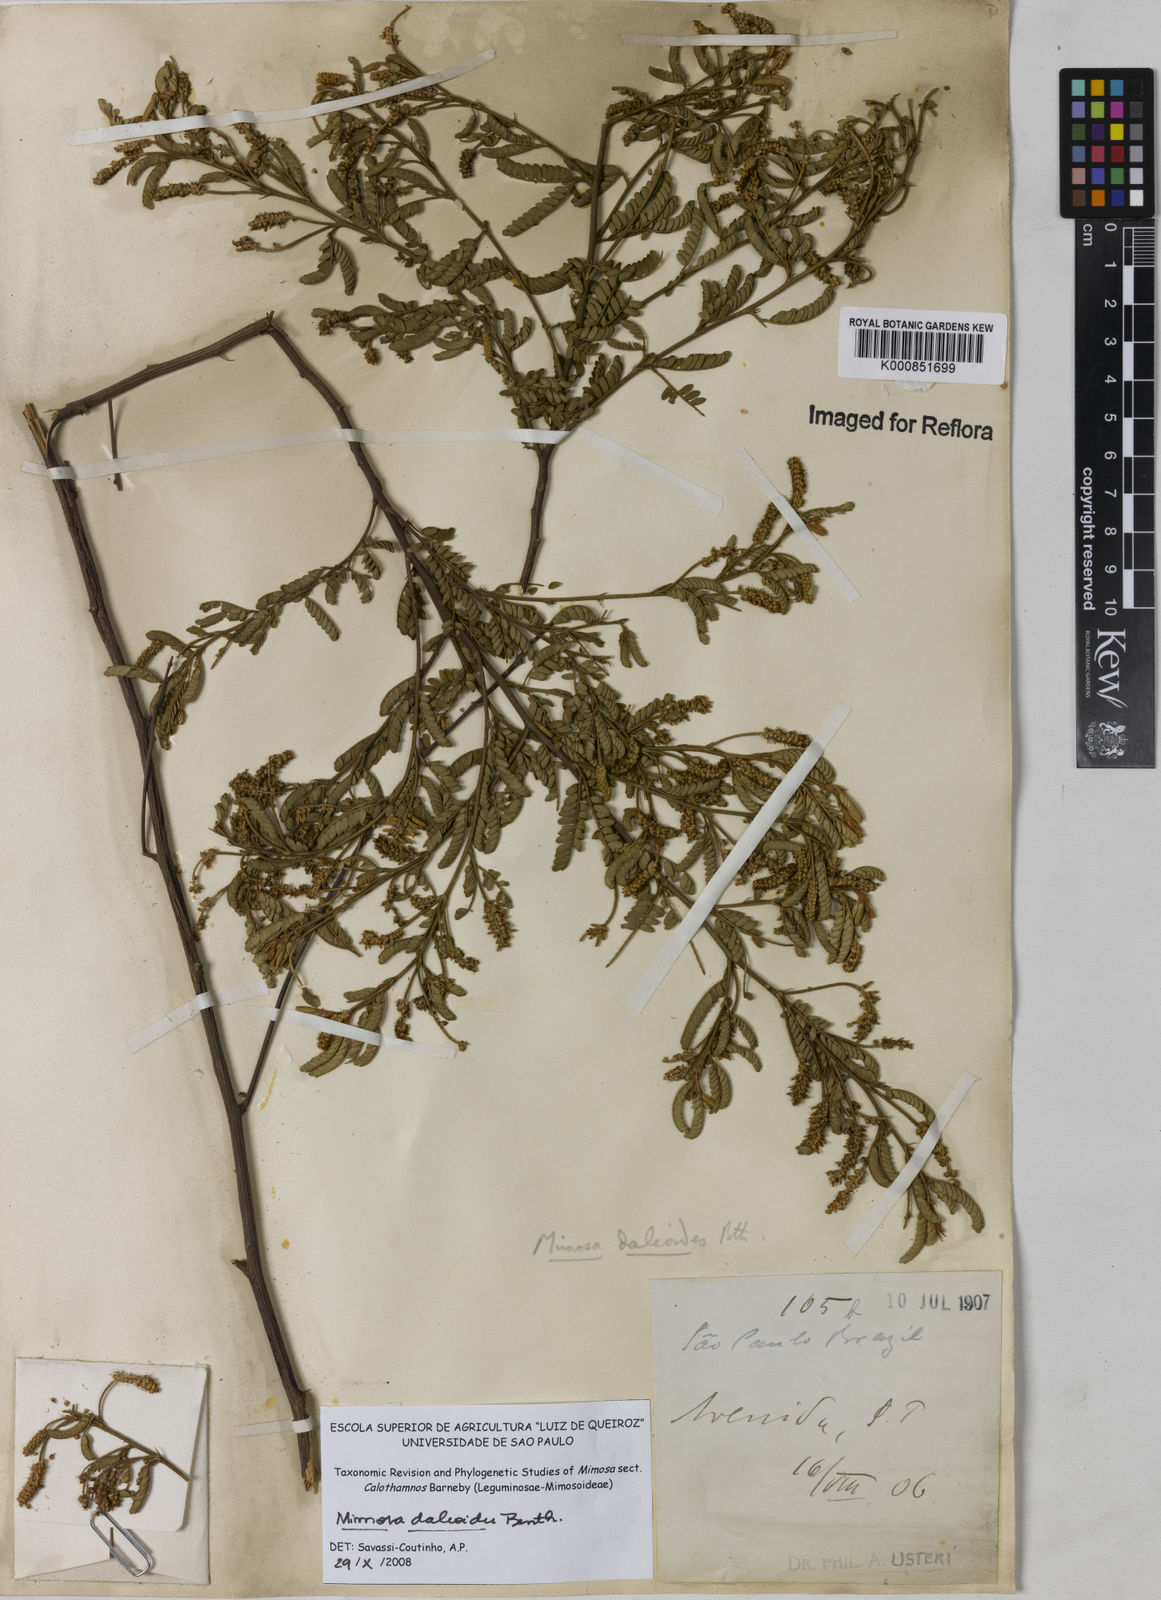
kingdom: Plantae
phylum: Tracheophyta
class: Magnoliopsida
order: Fabales
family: Fabaceae
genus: Mimosa
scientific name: Mimosa daleoides
